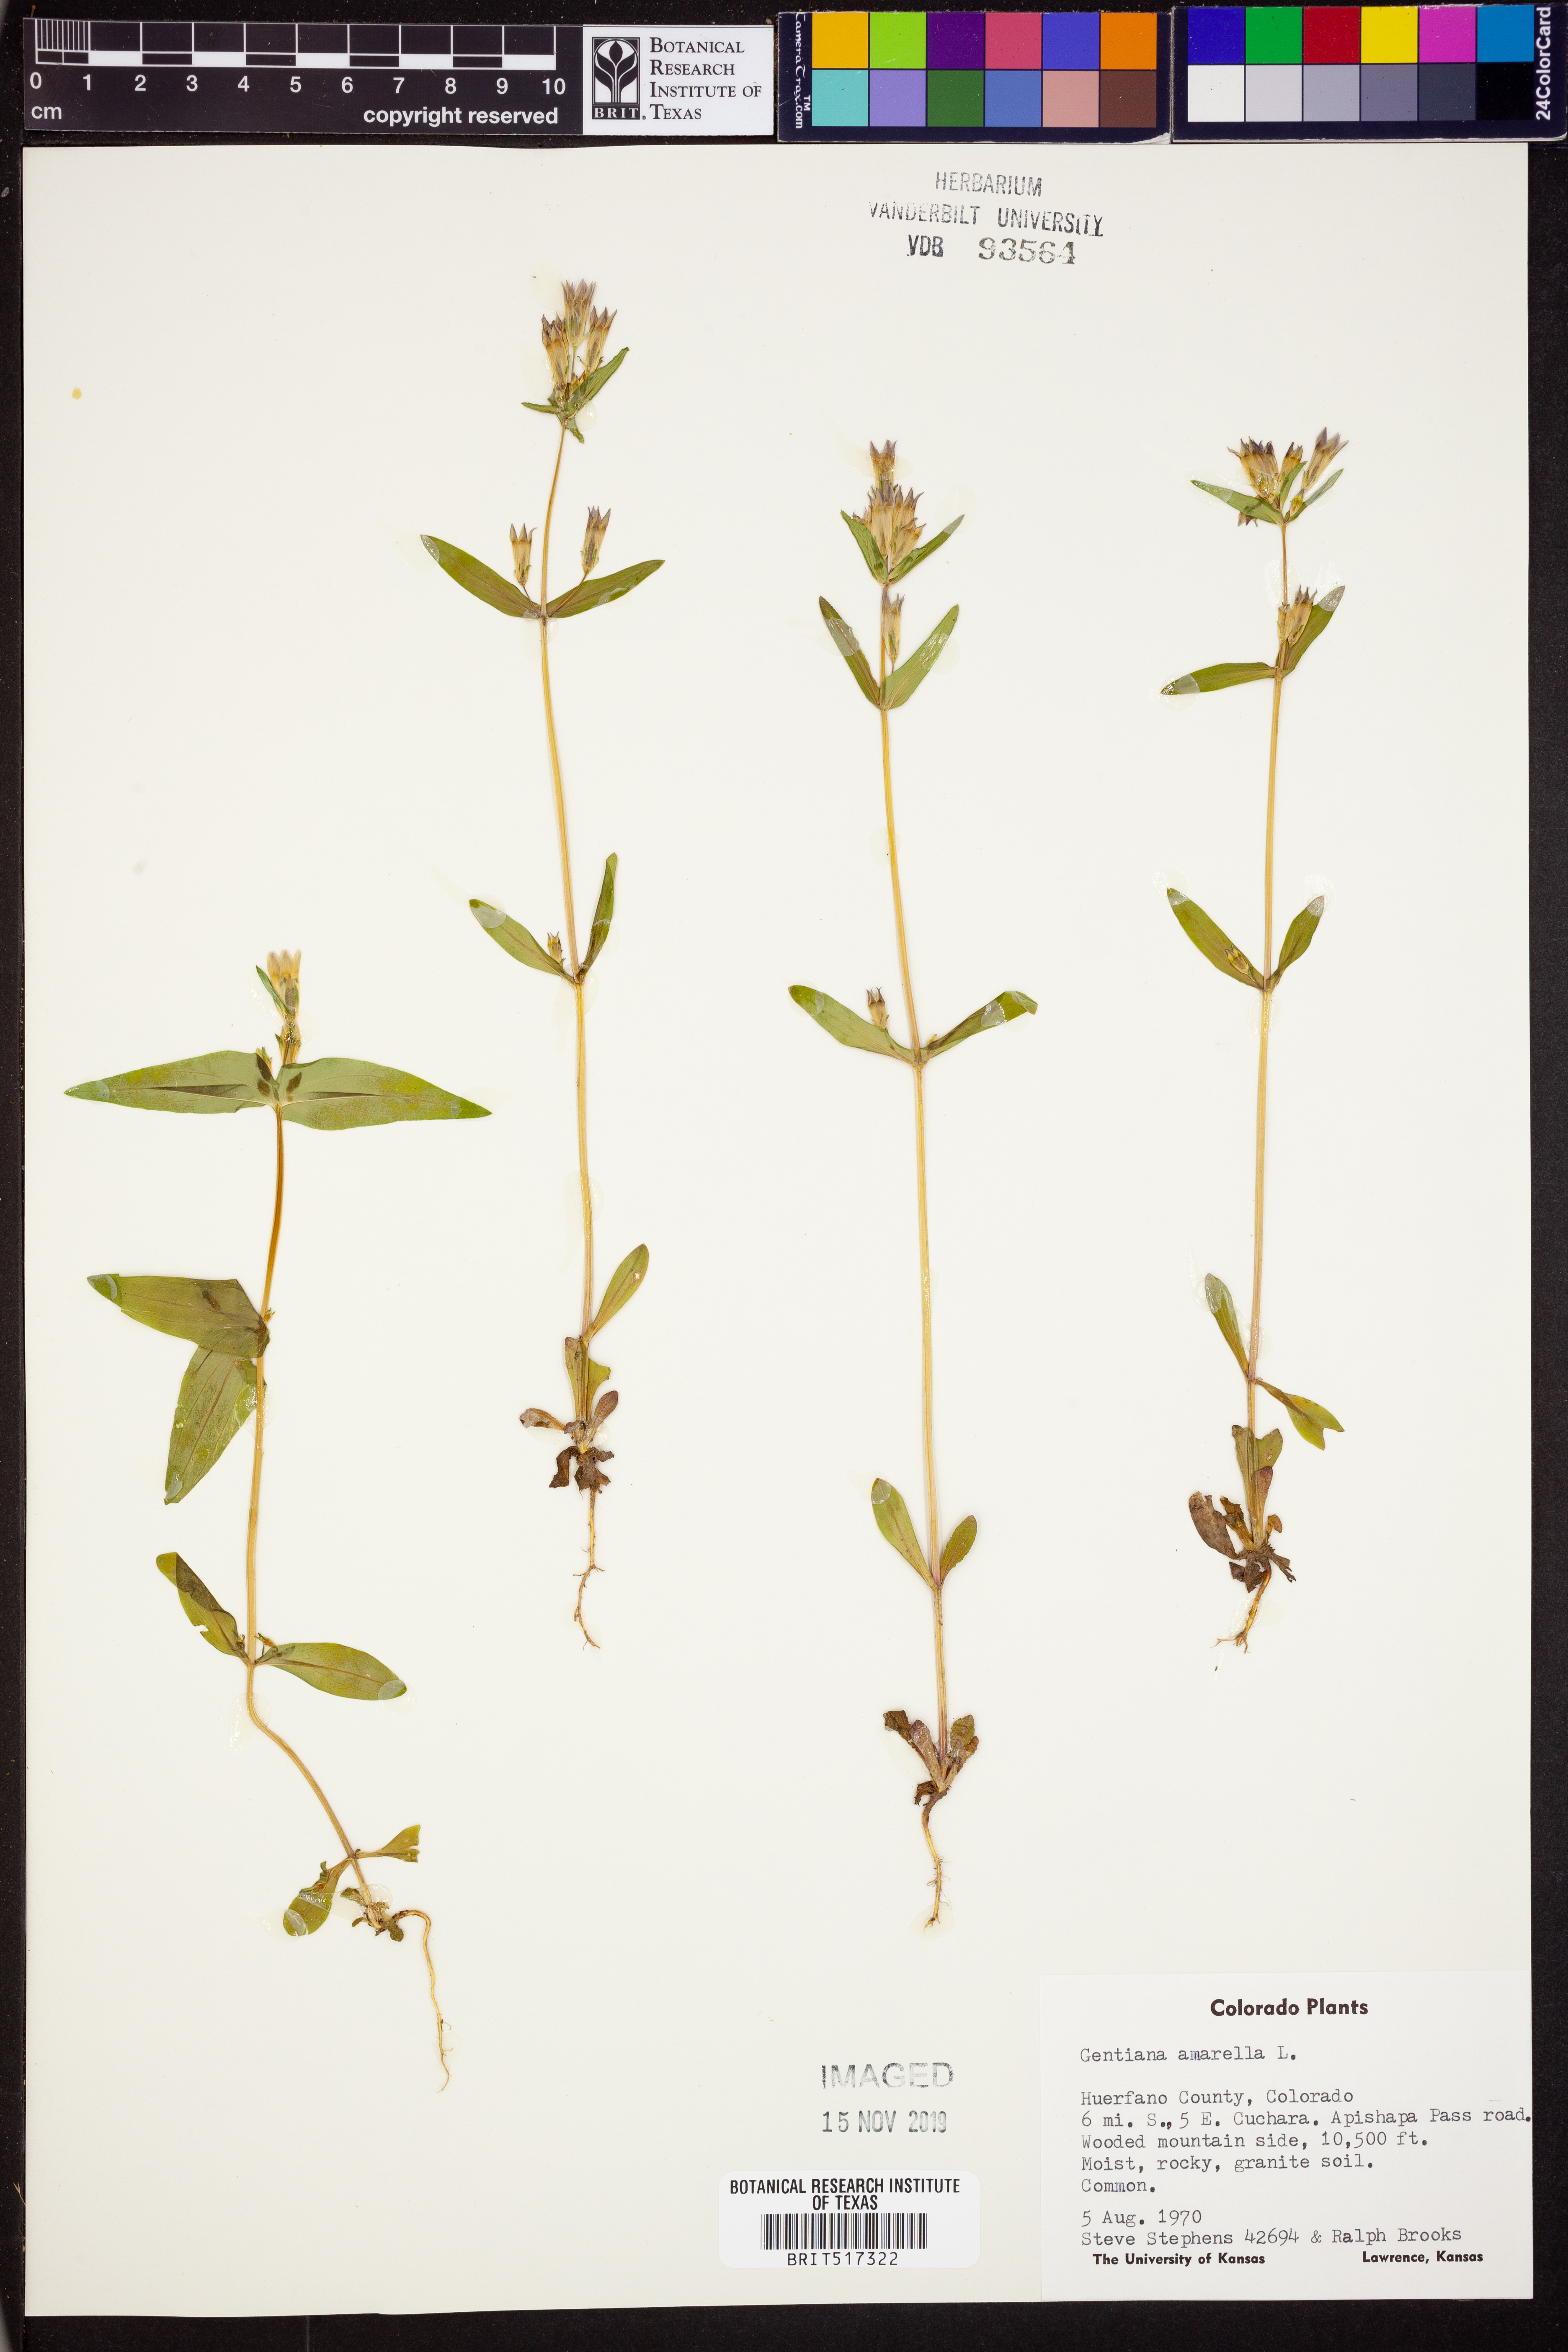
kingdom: Plantae
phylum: Tracheophyta
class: Magnoliopsida
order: Gentianales
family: Gentianaceae
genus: Gentianella
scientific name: Gentianella
